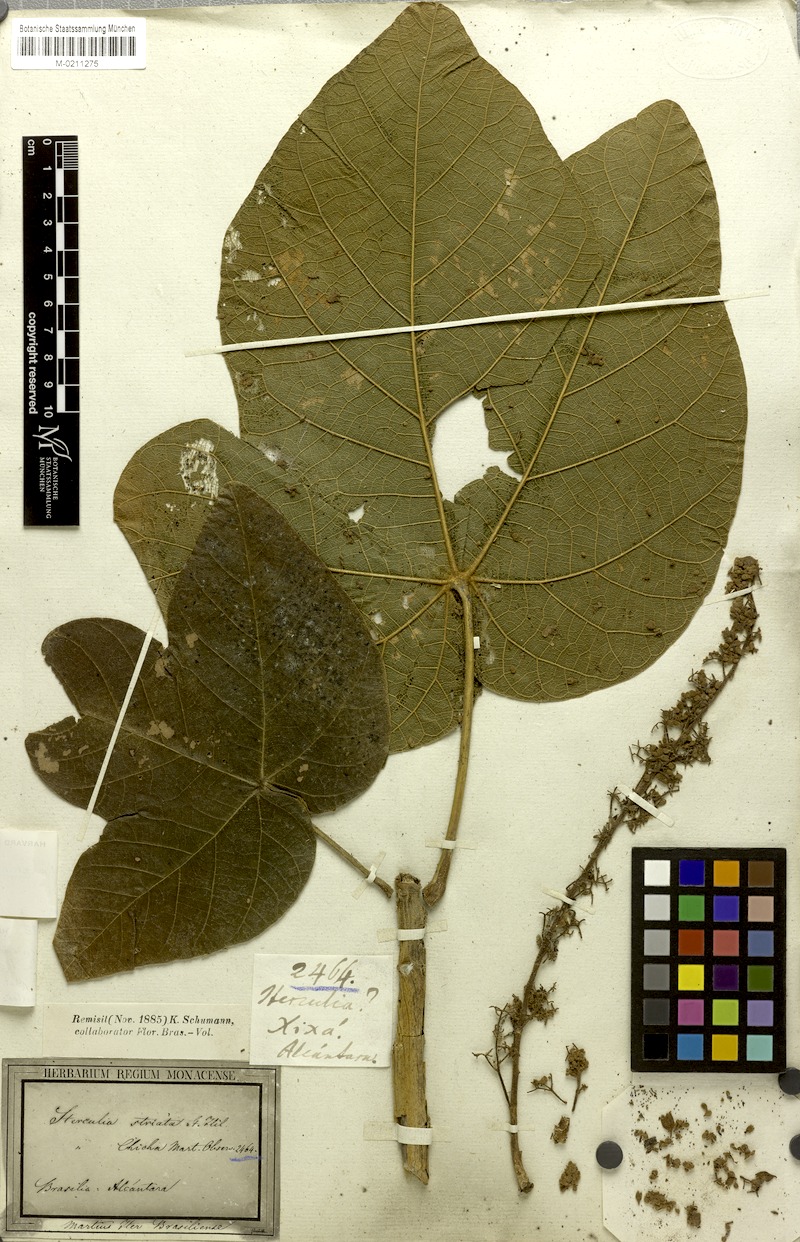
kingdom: Plantae
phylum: Tracheophyta
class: Magnoliopsida
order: Malvales
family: Malvaceae
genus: Sterculia
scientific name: Sterculia striata
